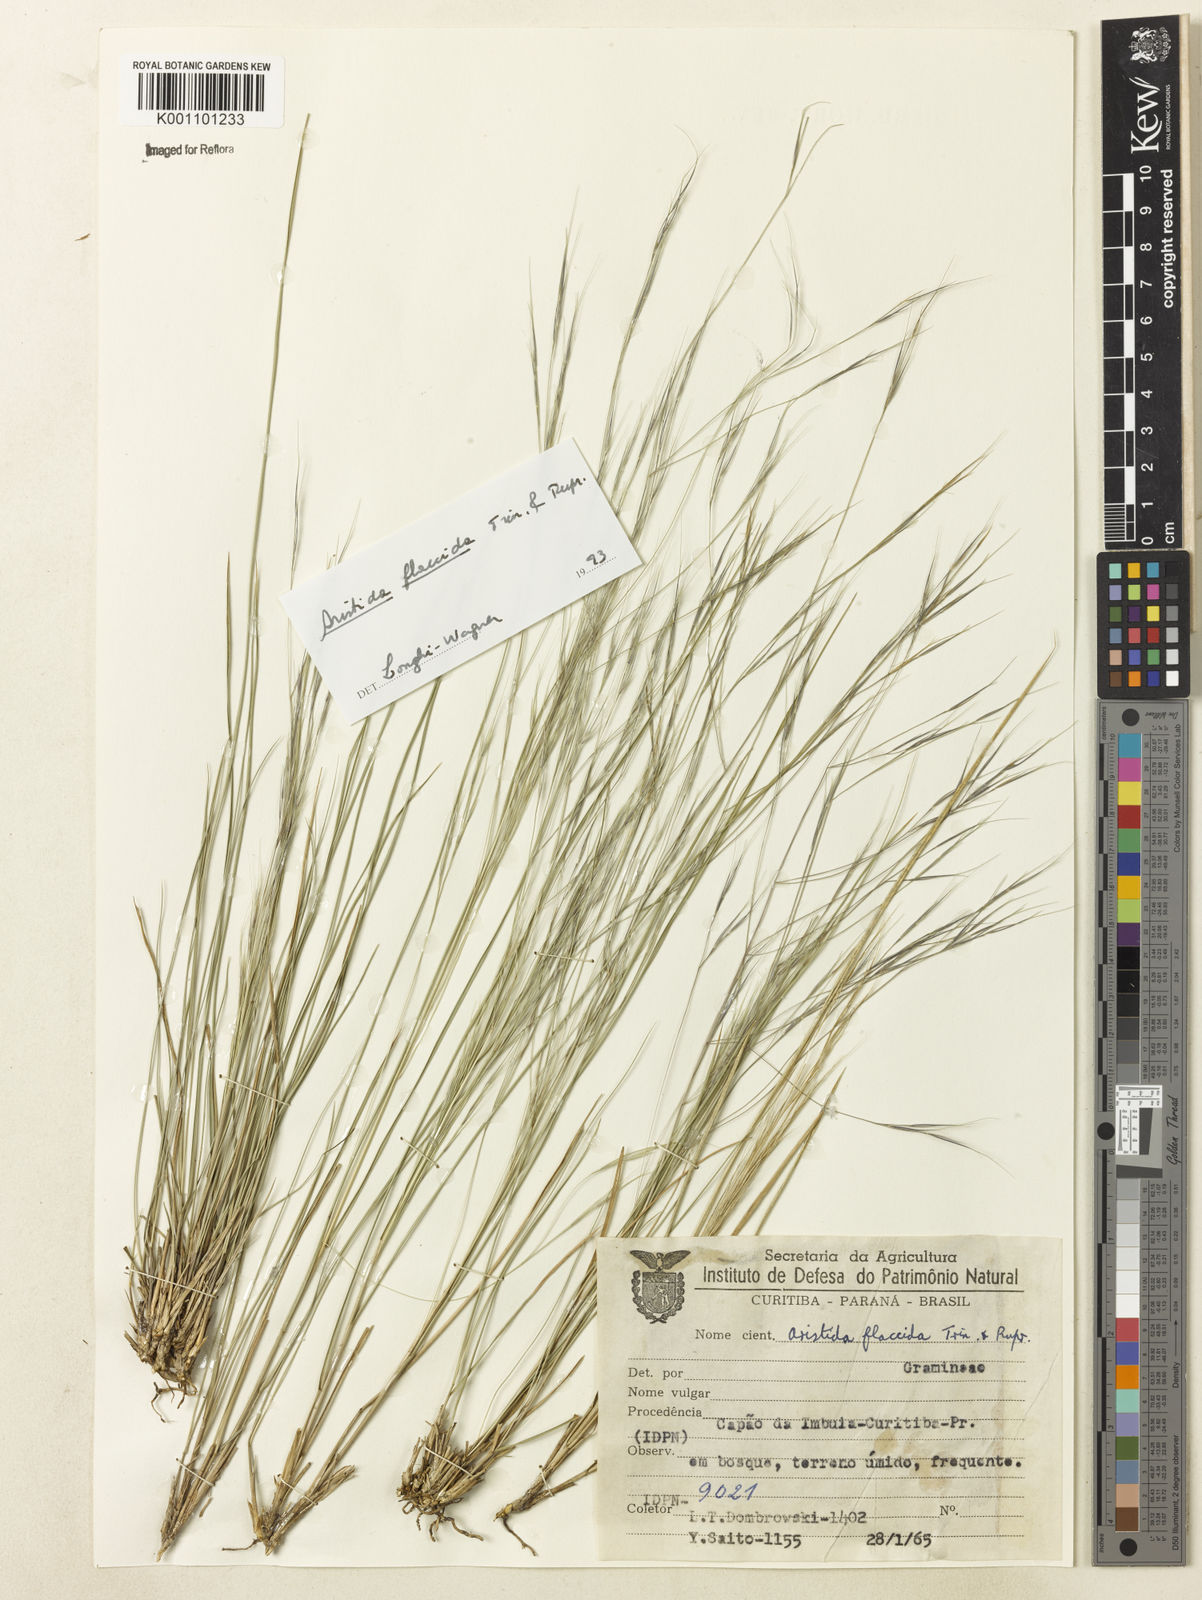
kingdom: Plantae
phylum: Tracheophyta
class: Liliopsida
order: Poales
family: Poaceae
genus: Aristida
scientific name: Aristida flaccida
